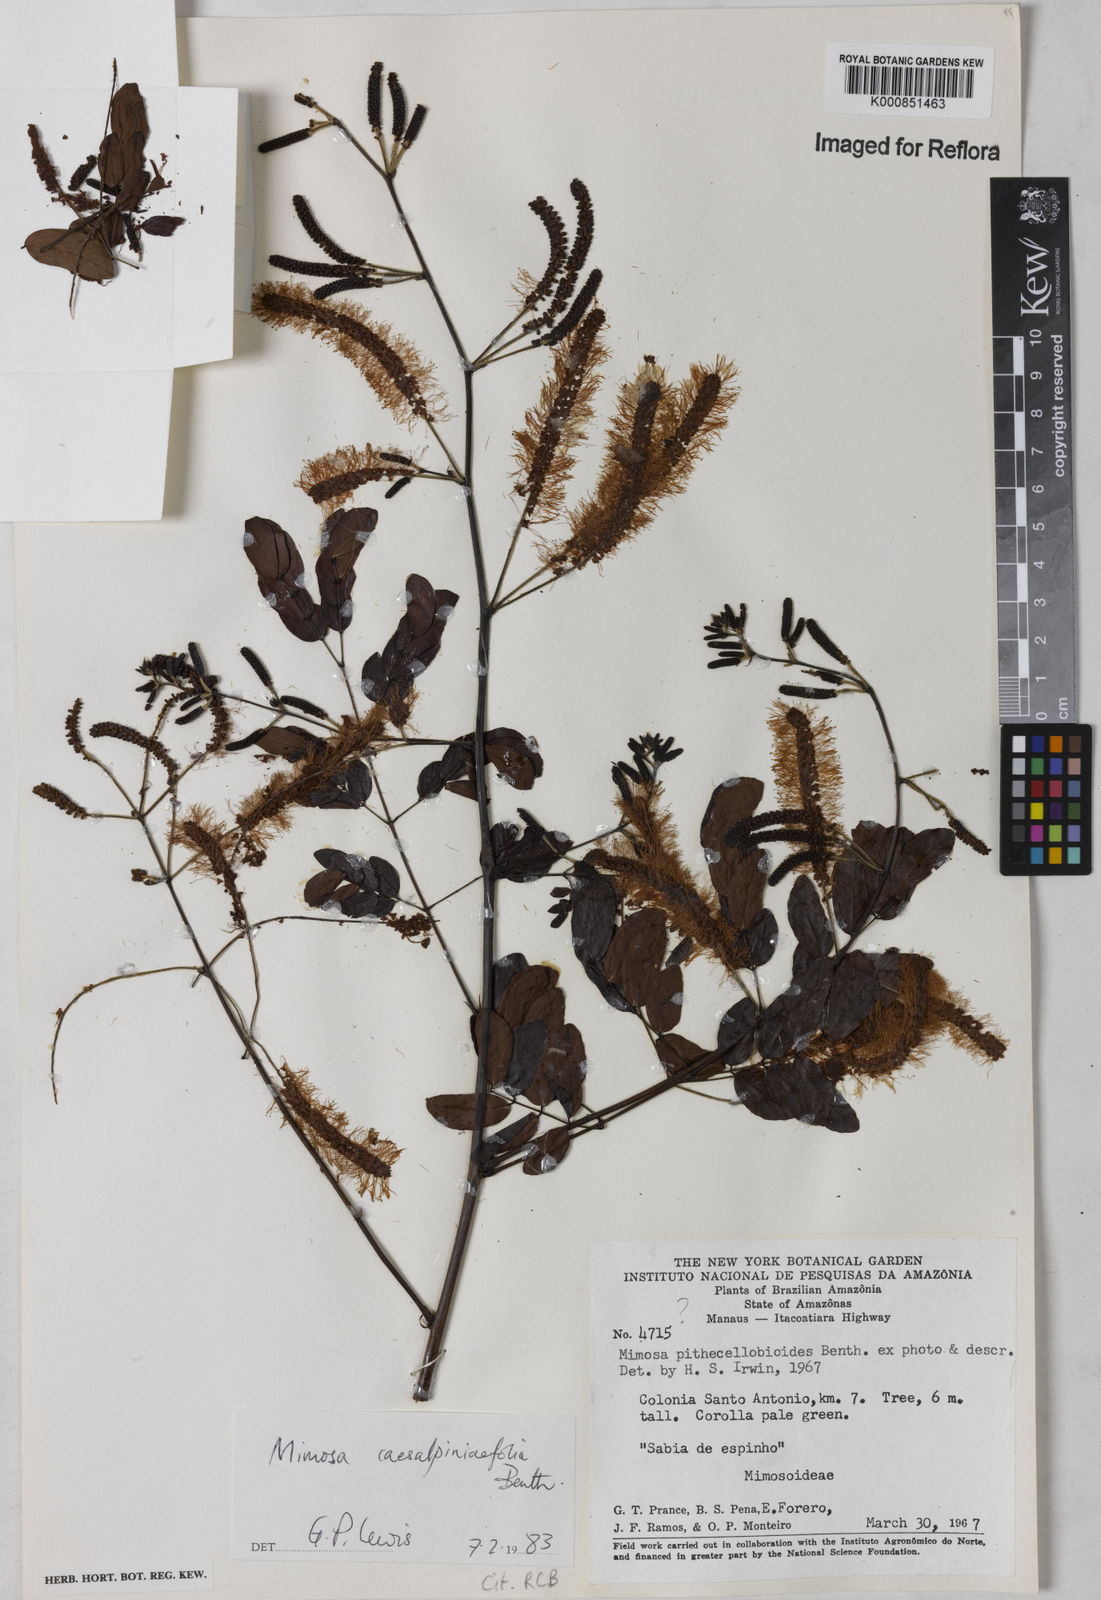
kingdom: Plantae
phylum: Tracheophyta
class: Magnoliopsida
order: Fabales
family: Fabaceae
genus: Mimosa
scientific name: Mimosa caesalpiniifolia
